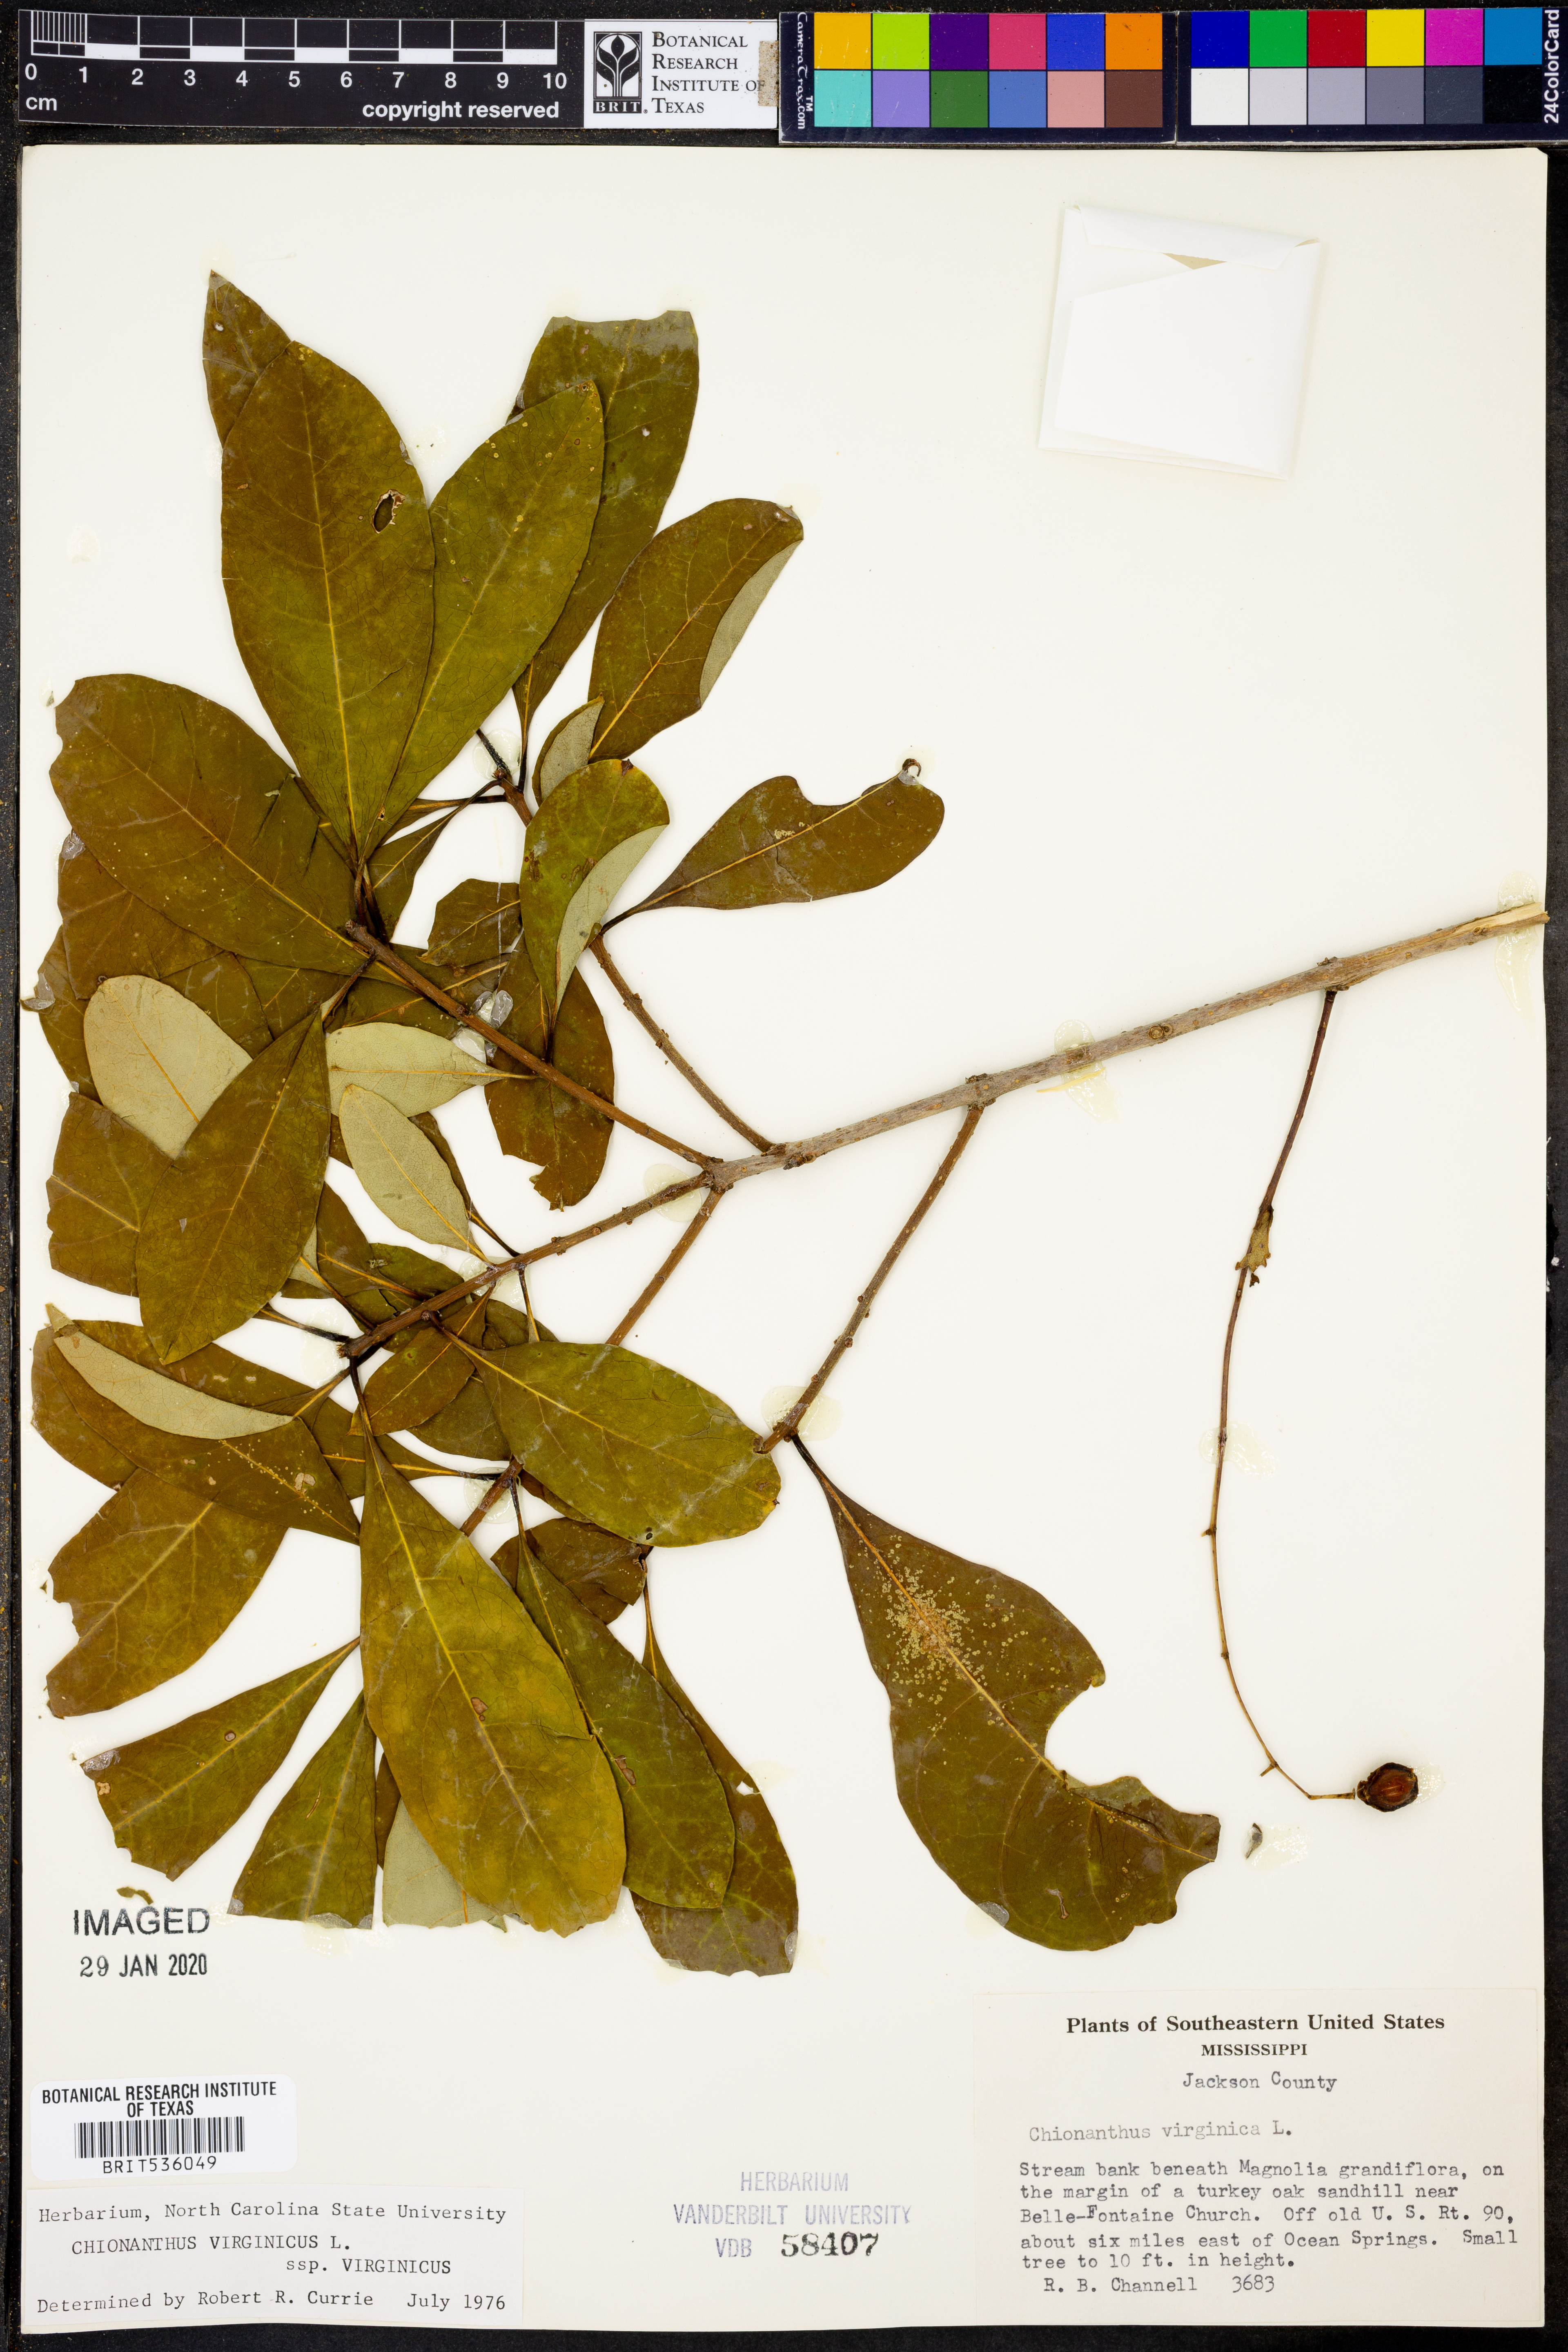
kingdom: Plantae
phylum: Tracheophyta
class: Magnoliopsida
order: Lamiales
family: Oleaceae
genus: Chionanthus
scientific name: Chionanthus virginicus
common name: American fringetree
